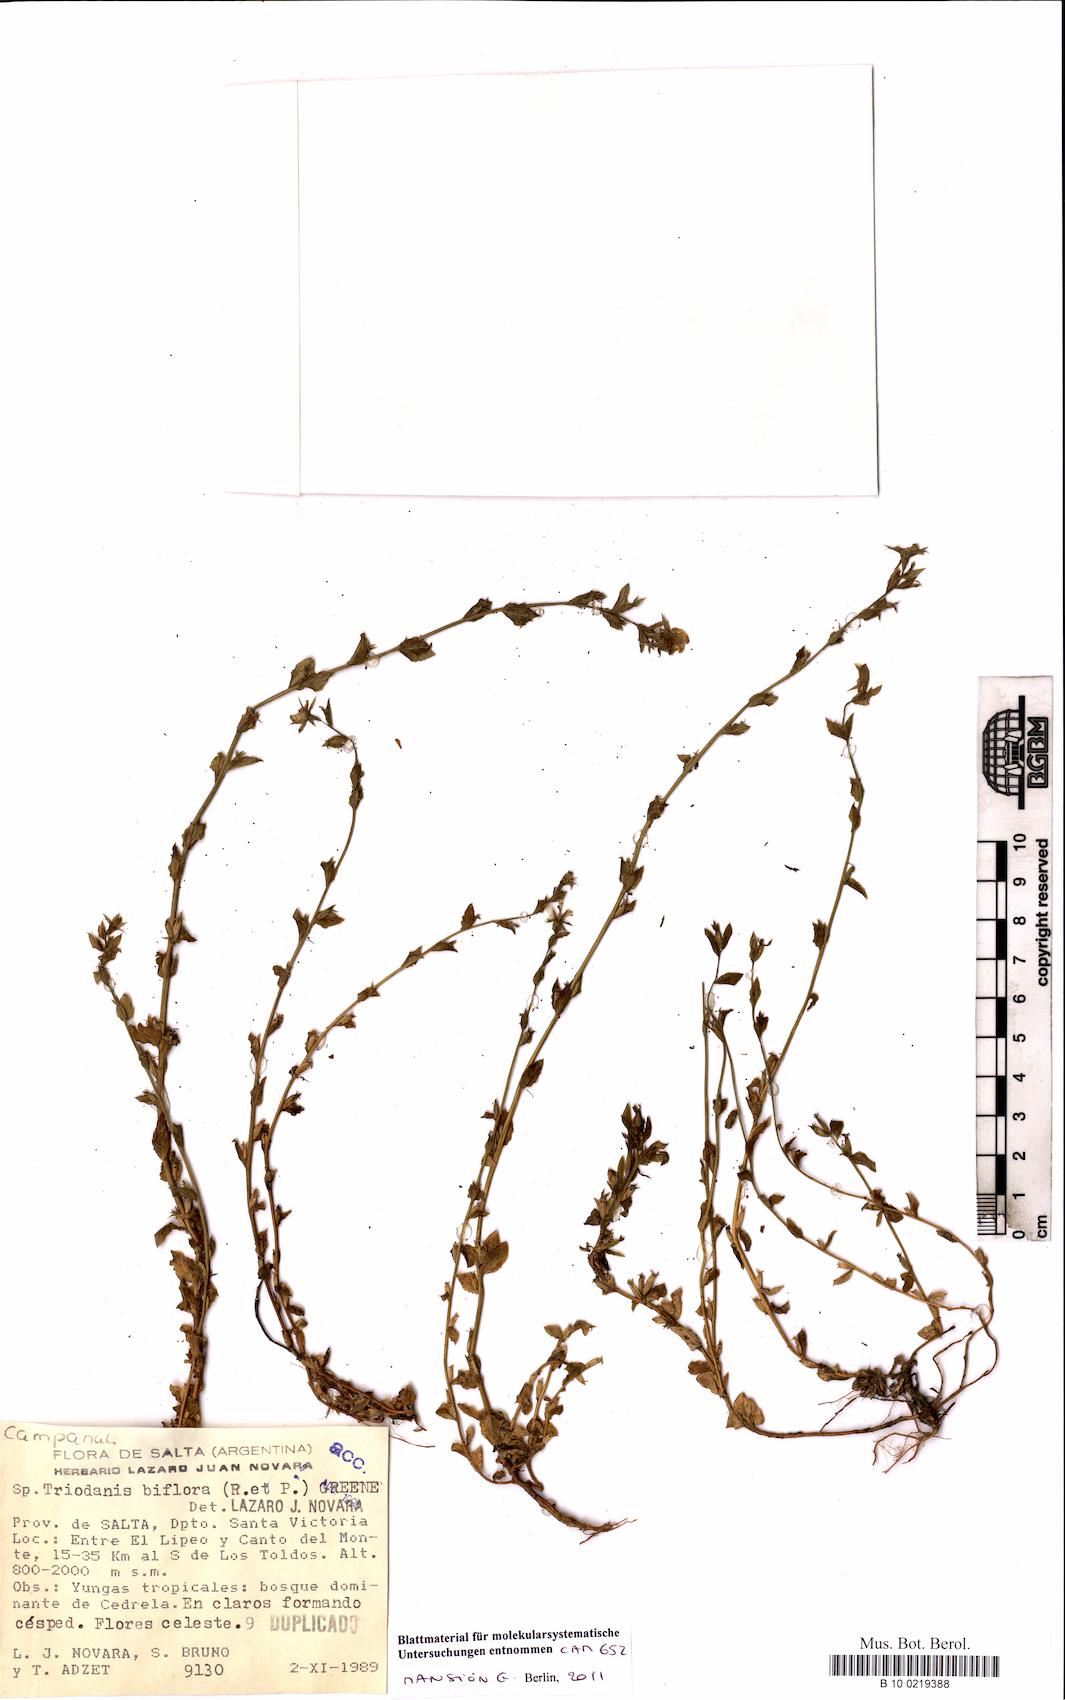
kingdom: Plantae
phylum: Tracheophyta
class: Magnoliopsida
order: Asterales
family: Campanulaceae
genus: Triodanis
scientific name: Triodanis perfoliata
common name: Clasping venus' looking-glass
